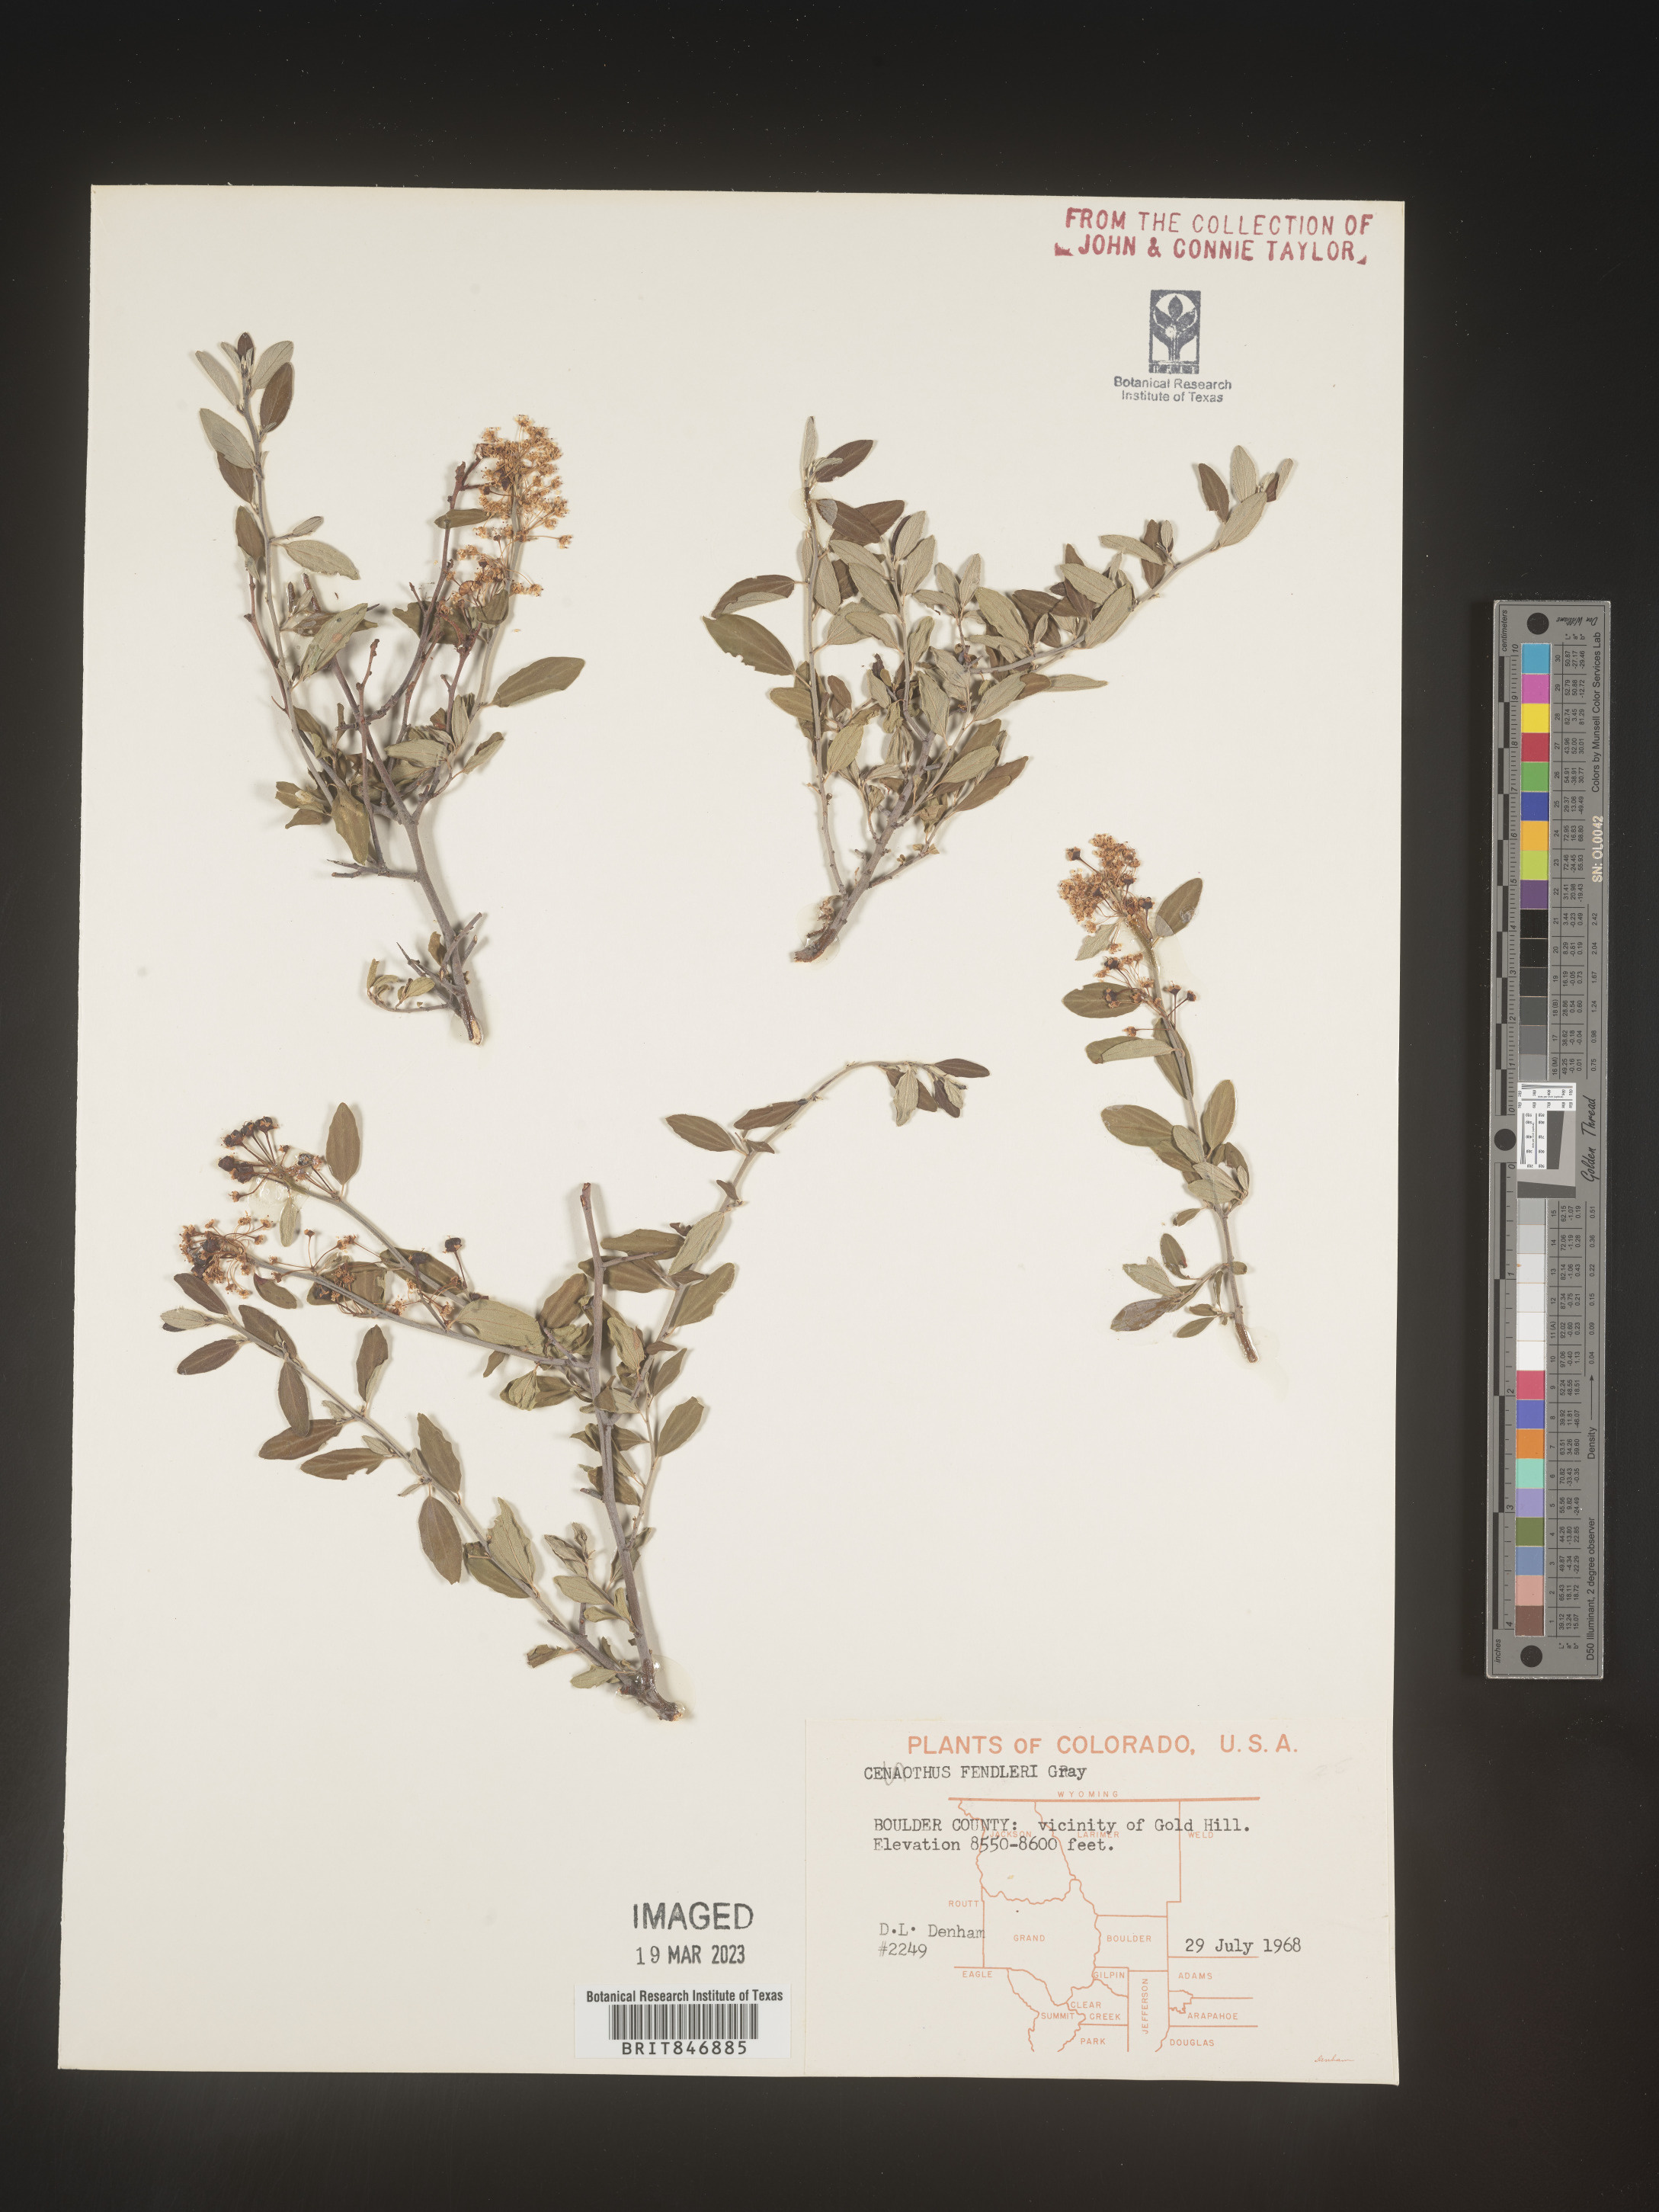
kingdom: Plantae
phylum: Tracheophyta
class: Magnoliopsida
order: Rosales
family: Rhamnaceae
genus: Ceanothus
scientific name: Ceanothus fendleri
